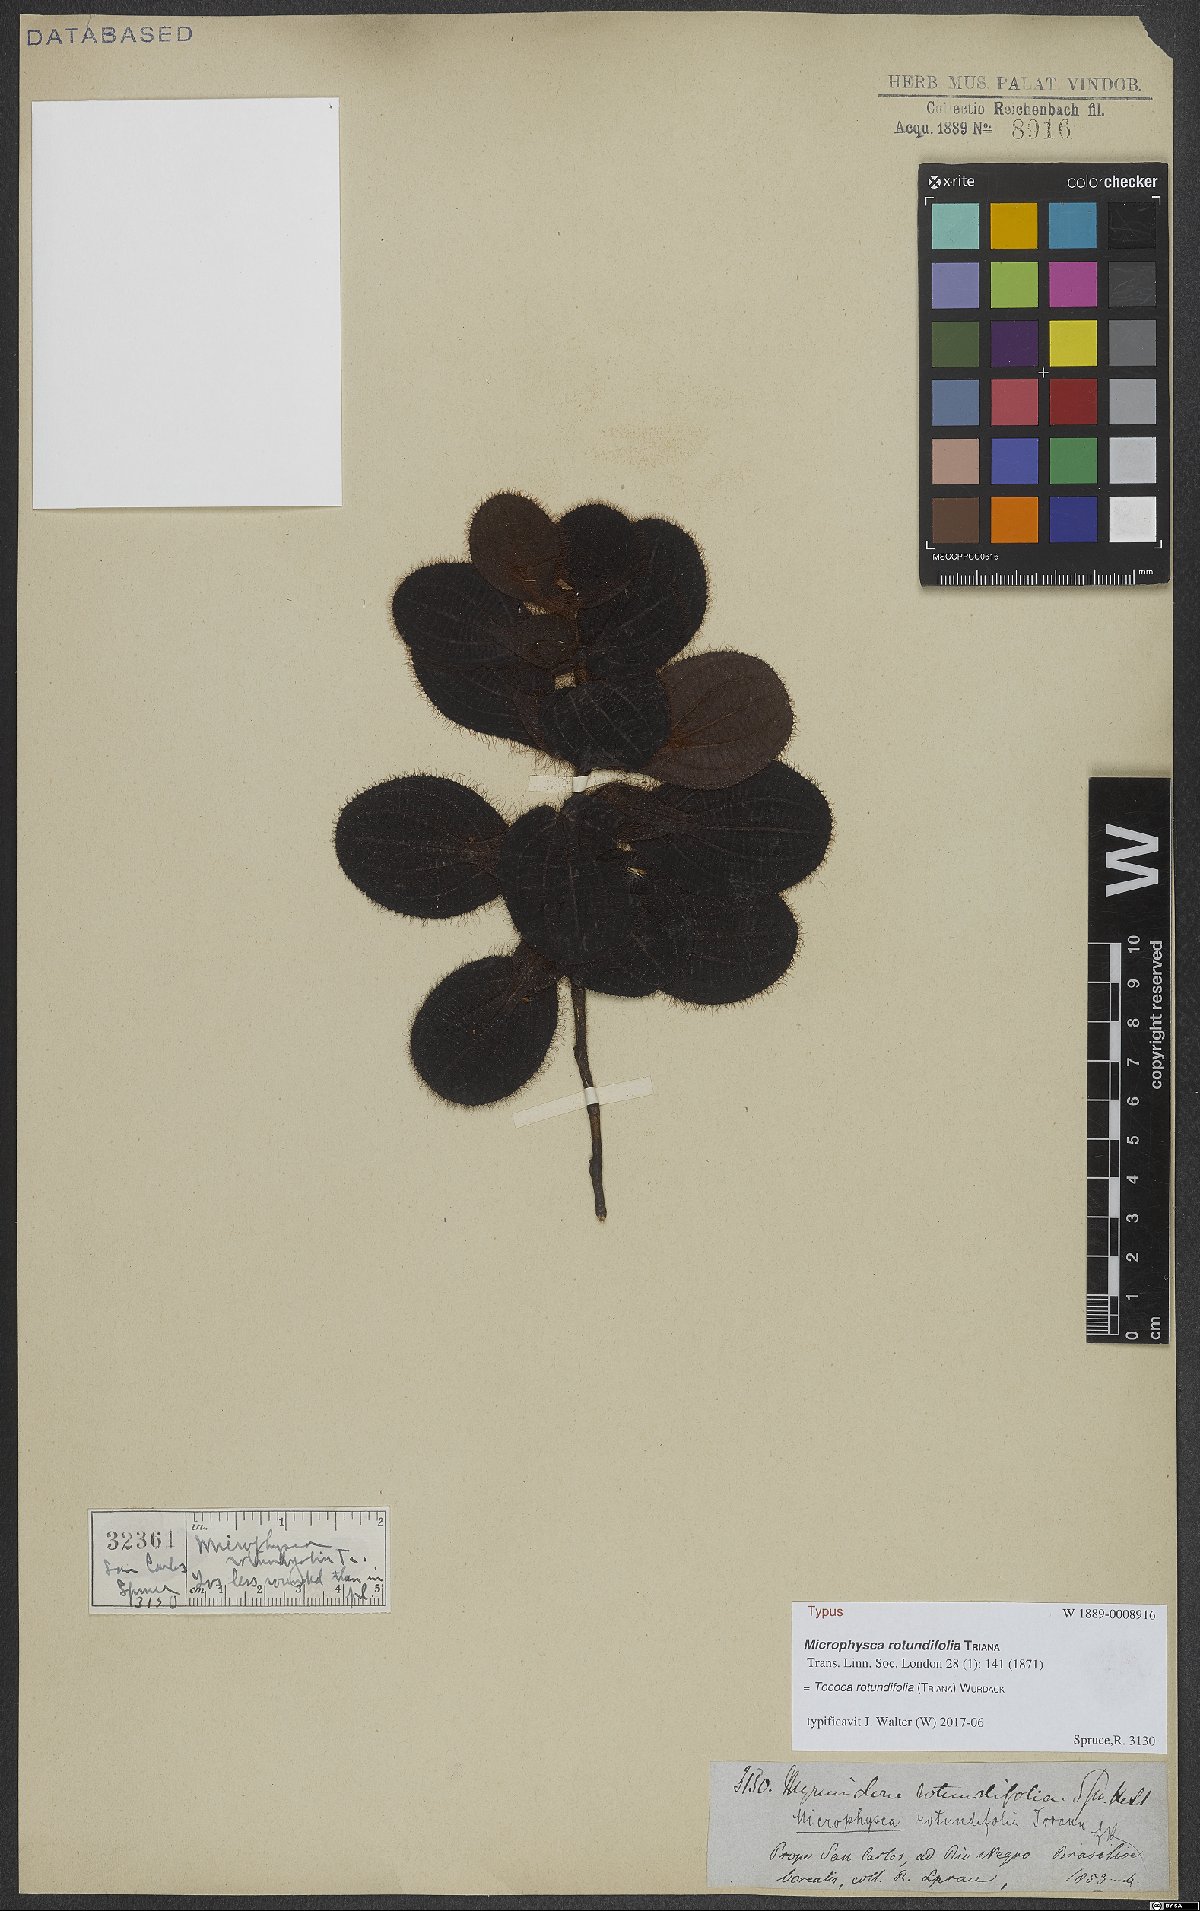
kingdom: Plantae
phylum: Tracheophyta
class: Magnoliopsida
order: Myrtales
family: Melastomataceae
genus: Miconia
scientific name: Miconia rubripetala
